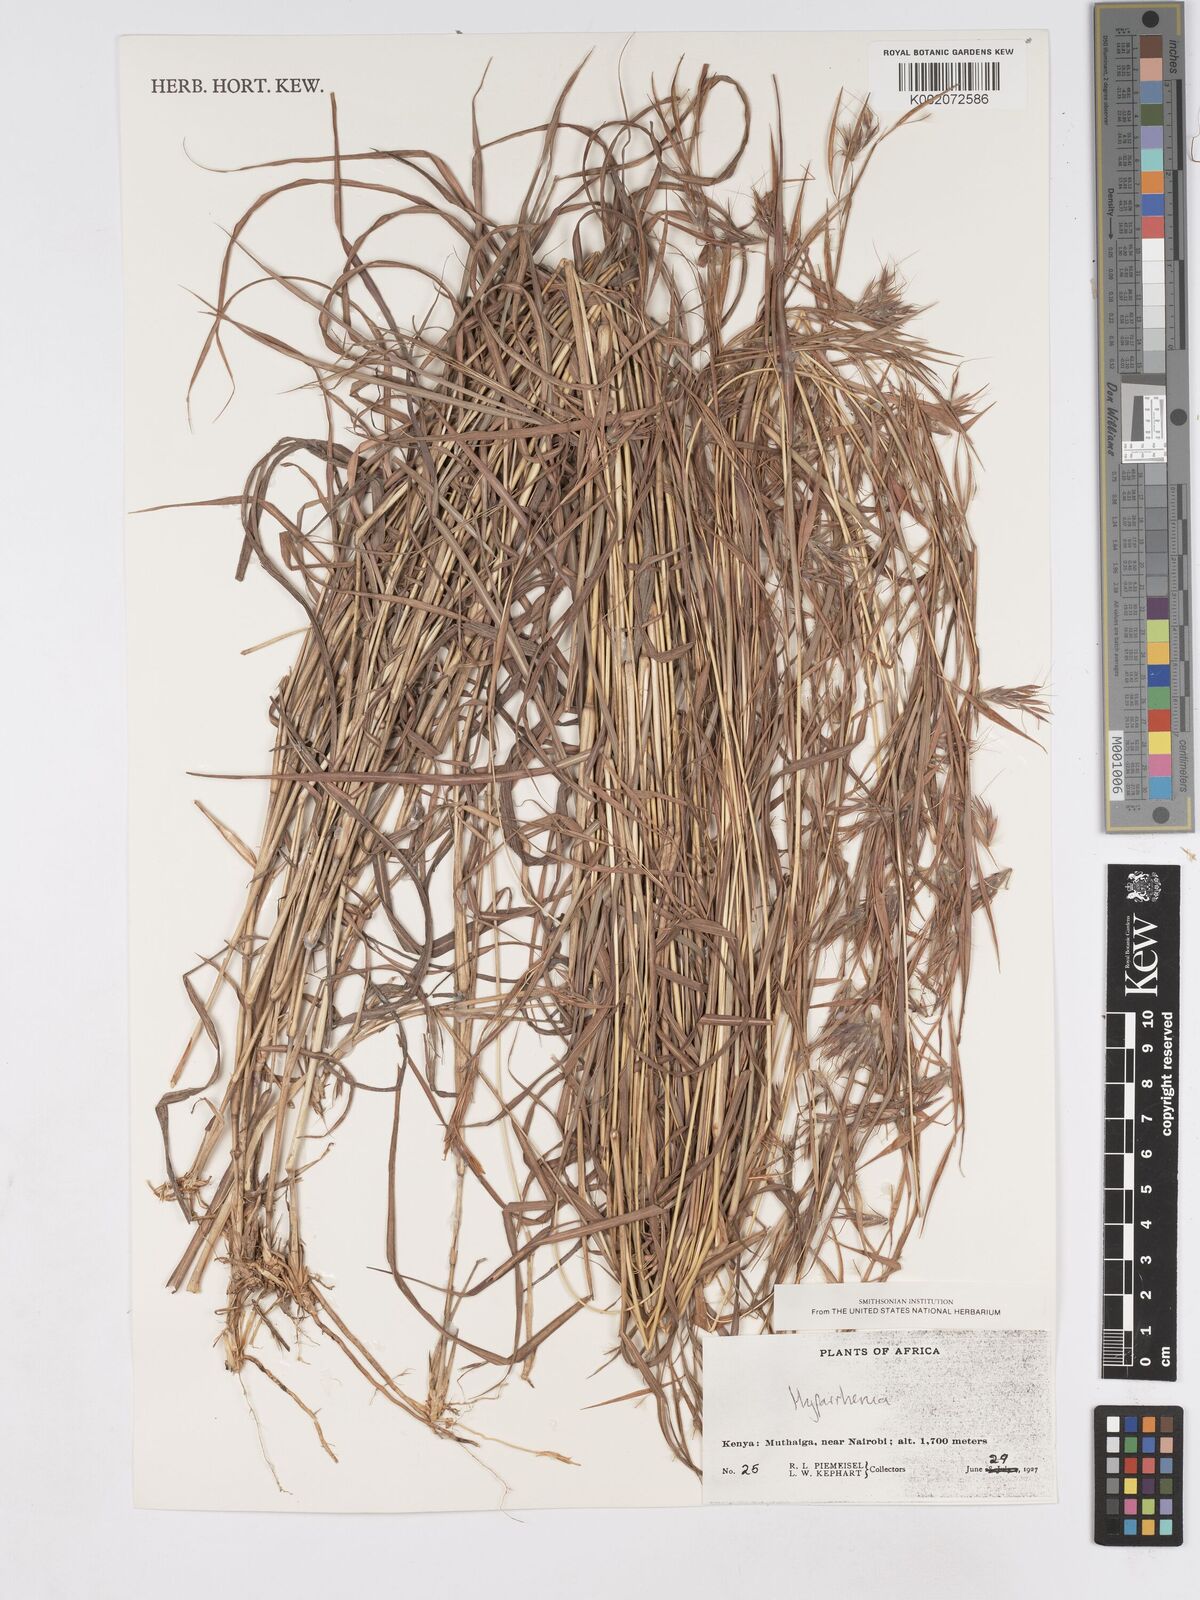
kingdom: Plantae
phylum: Tracheophyta
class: Liliopsida
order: Poales
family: Poaceae
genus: Hyparrhenia
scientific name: Hyparrhenia
